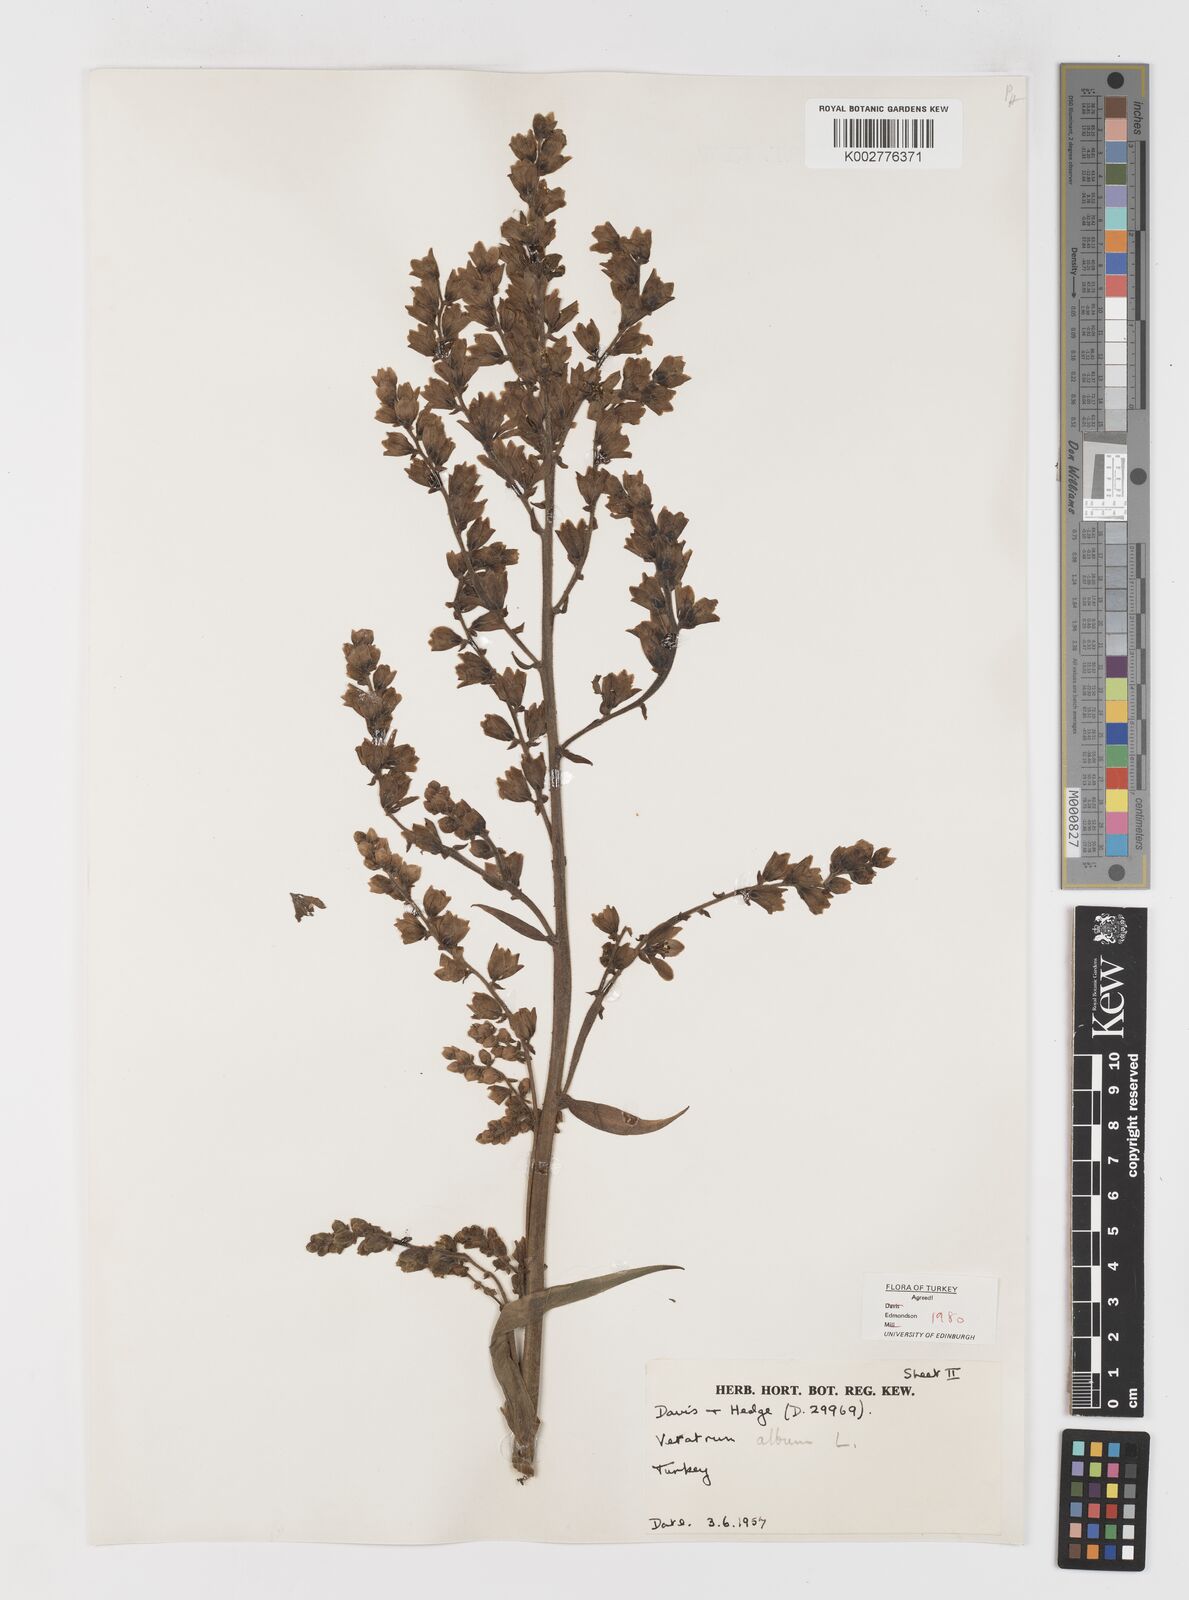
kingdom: Plantae
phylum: Tracheophyta
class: Liliopsida
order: Liliales
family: Melanthiaceae
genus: Veratrum
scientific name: Veratrum
